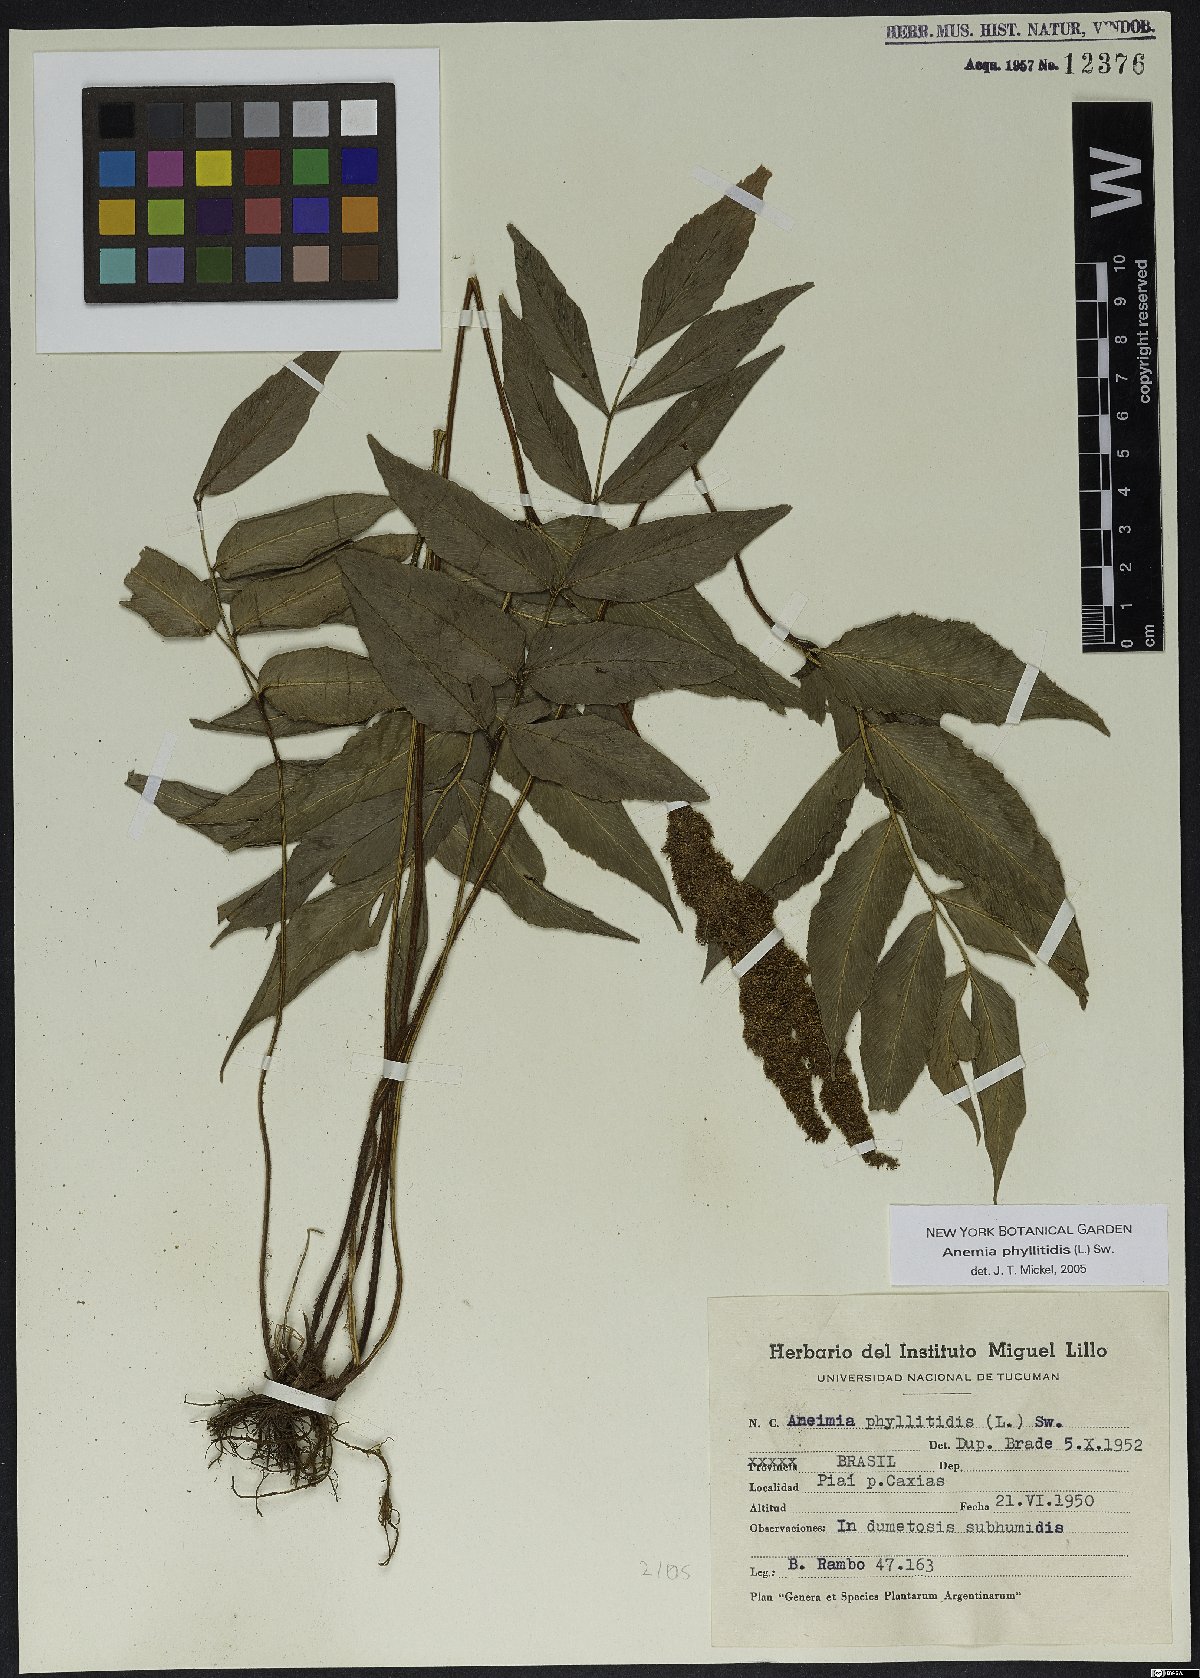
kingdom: Plantae
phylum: Tracheophyta
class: Polypodiopsida
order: Schizaeales
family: Anemiaceae
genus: Anemia
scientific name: Anemia phyllitidis
